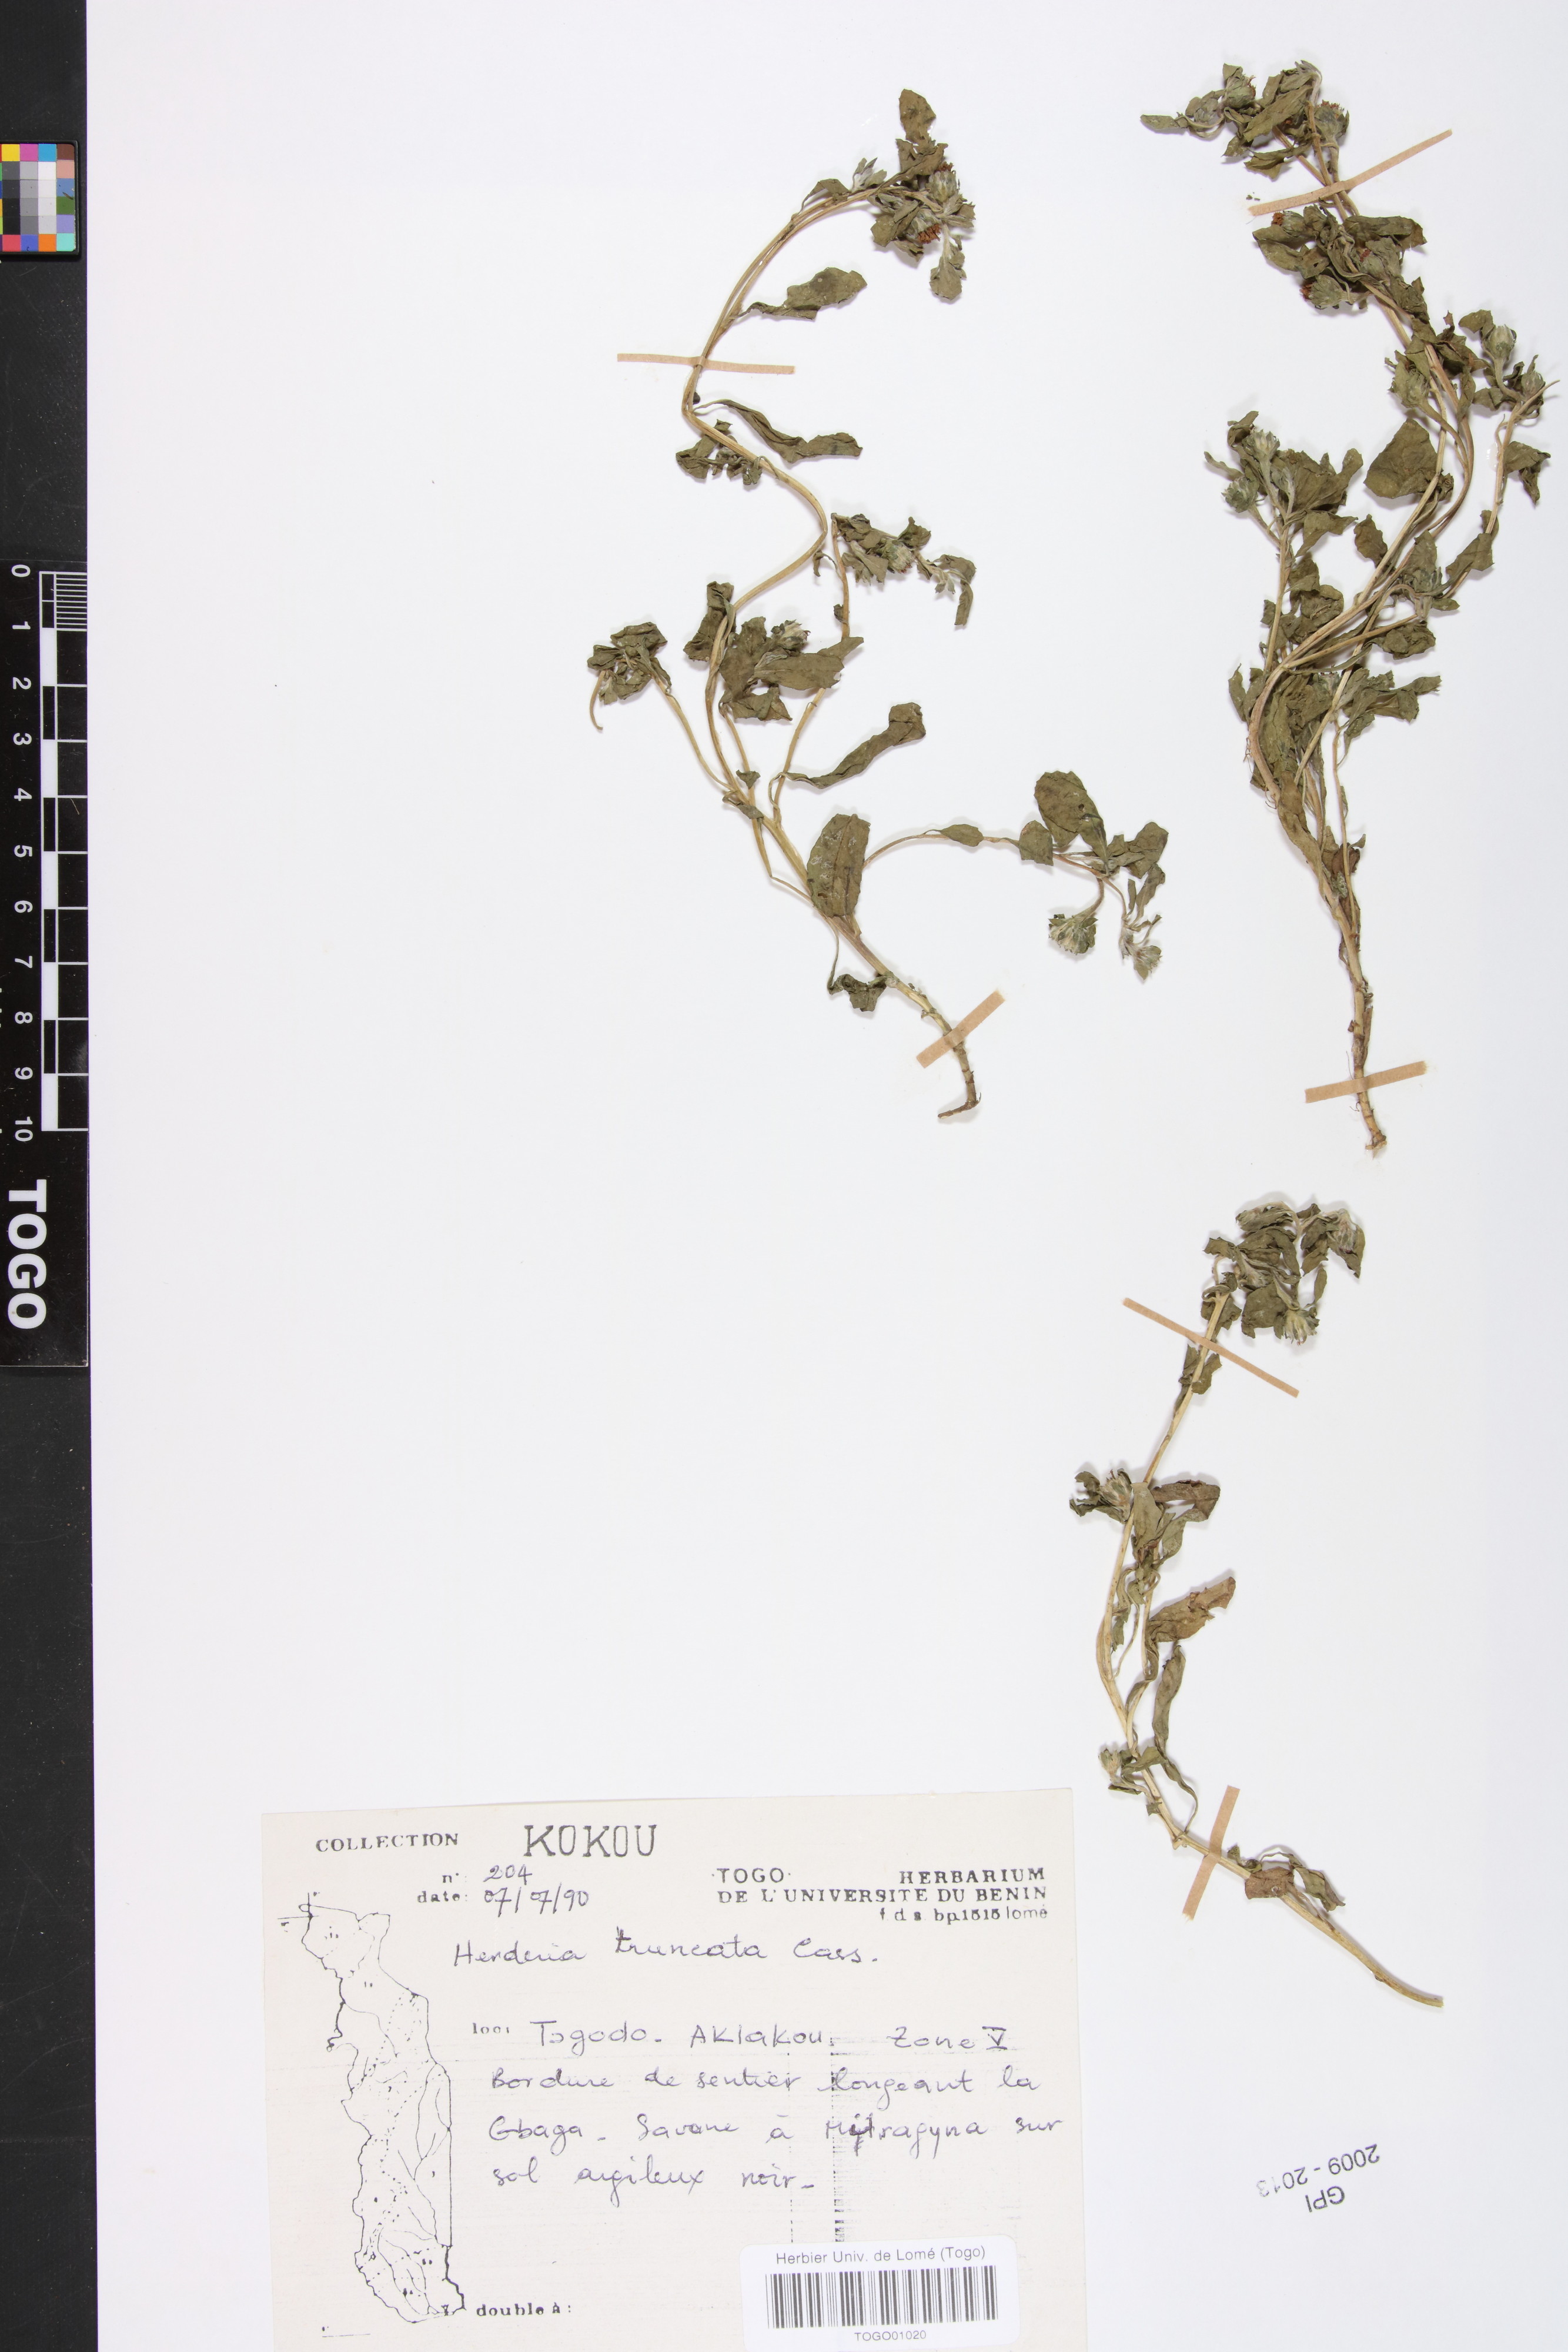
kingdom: Plantae
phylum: Tracheophyta
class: Magnoliopsida
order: Asterales
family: Asteraceae
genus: Herderia
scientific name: Herderia truncata
